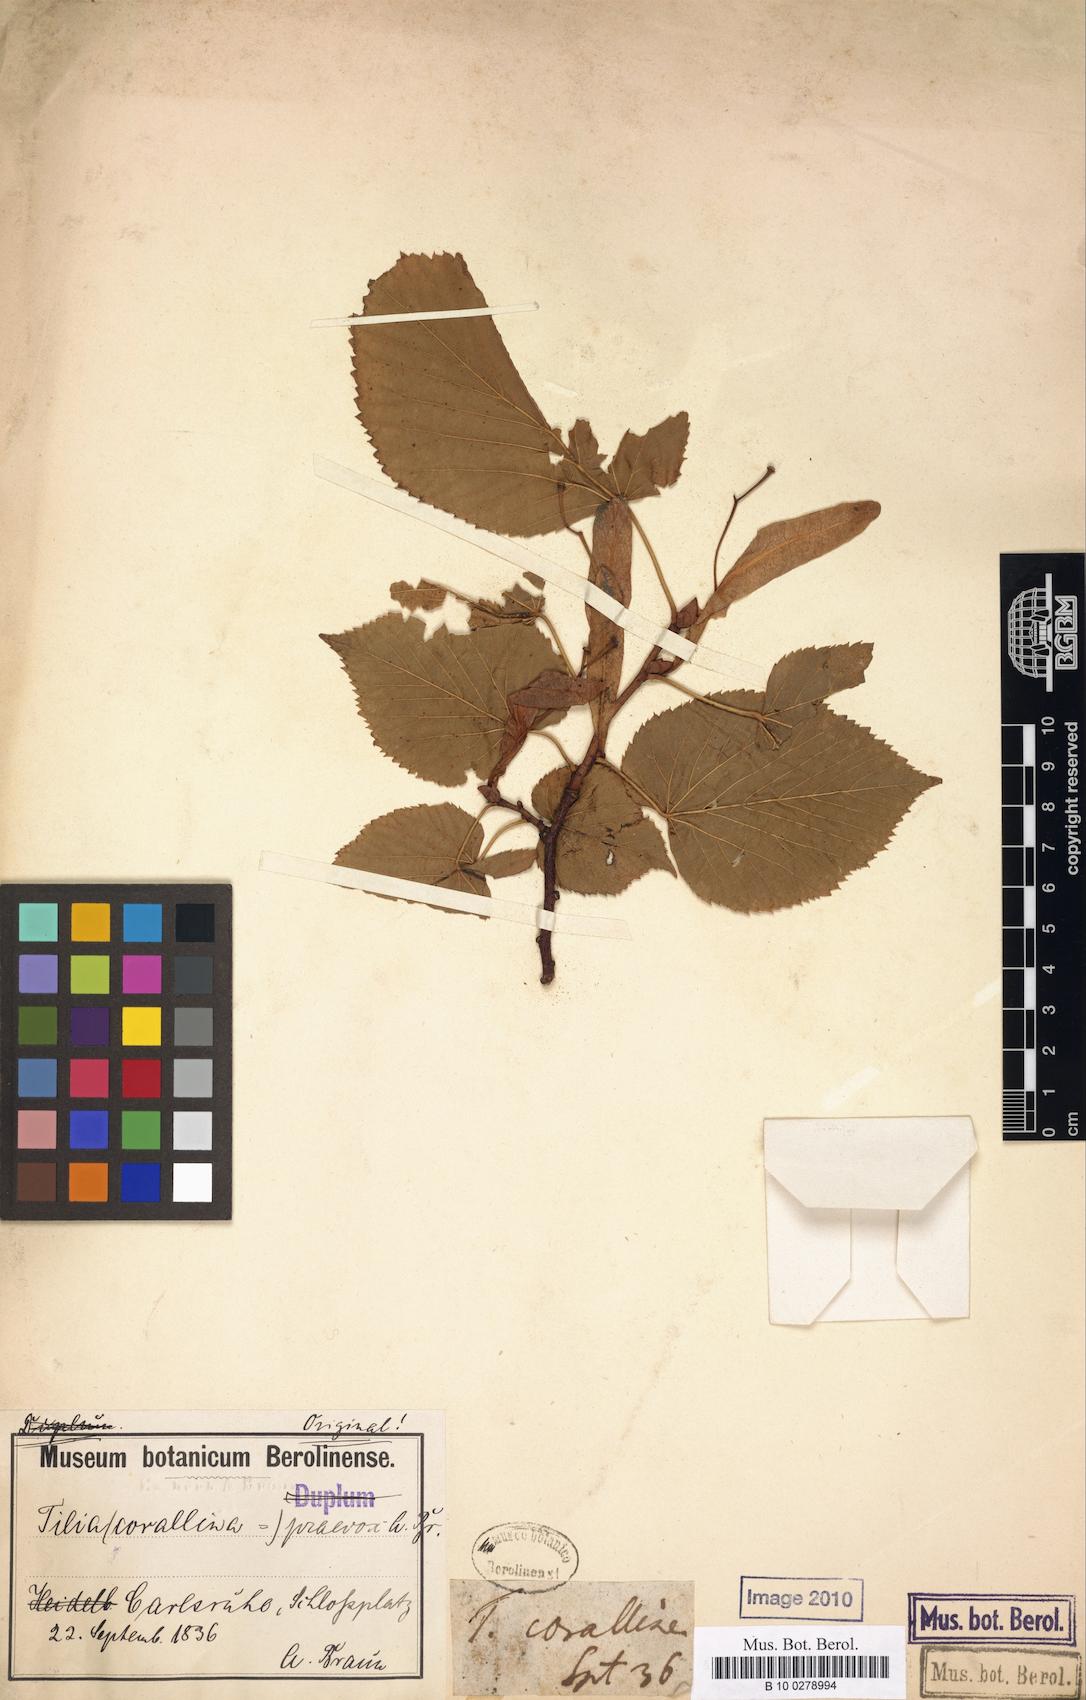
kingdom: Plantae
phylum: Tracheophyta
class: Magnoliopsida
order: Malvales
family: Malvaceae
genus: Tilia
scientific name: Tilia flaccida
